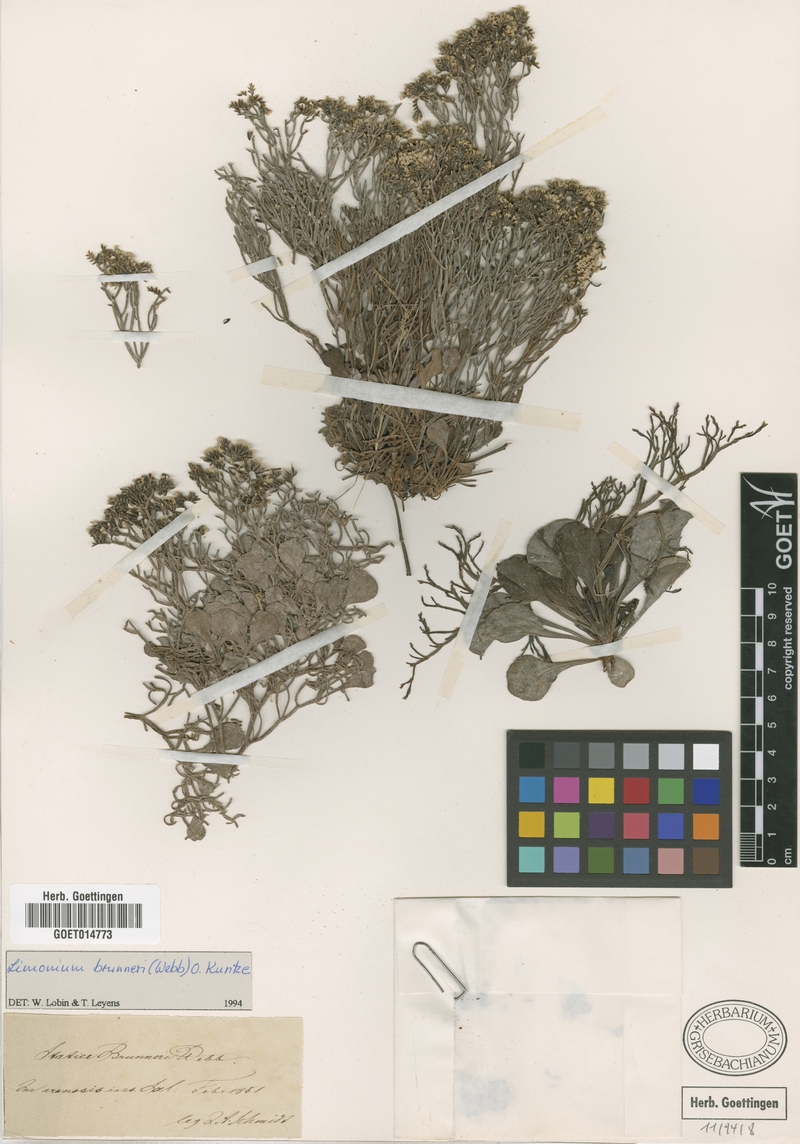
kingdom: Plantae
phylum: Tracheophyta
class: Magnoliopsida
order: Caryophyllales
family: Plumbaginaceae
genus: Limonium
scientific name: Limonium brunneri
